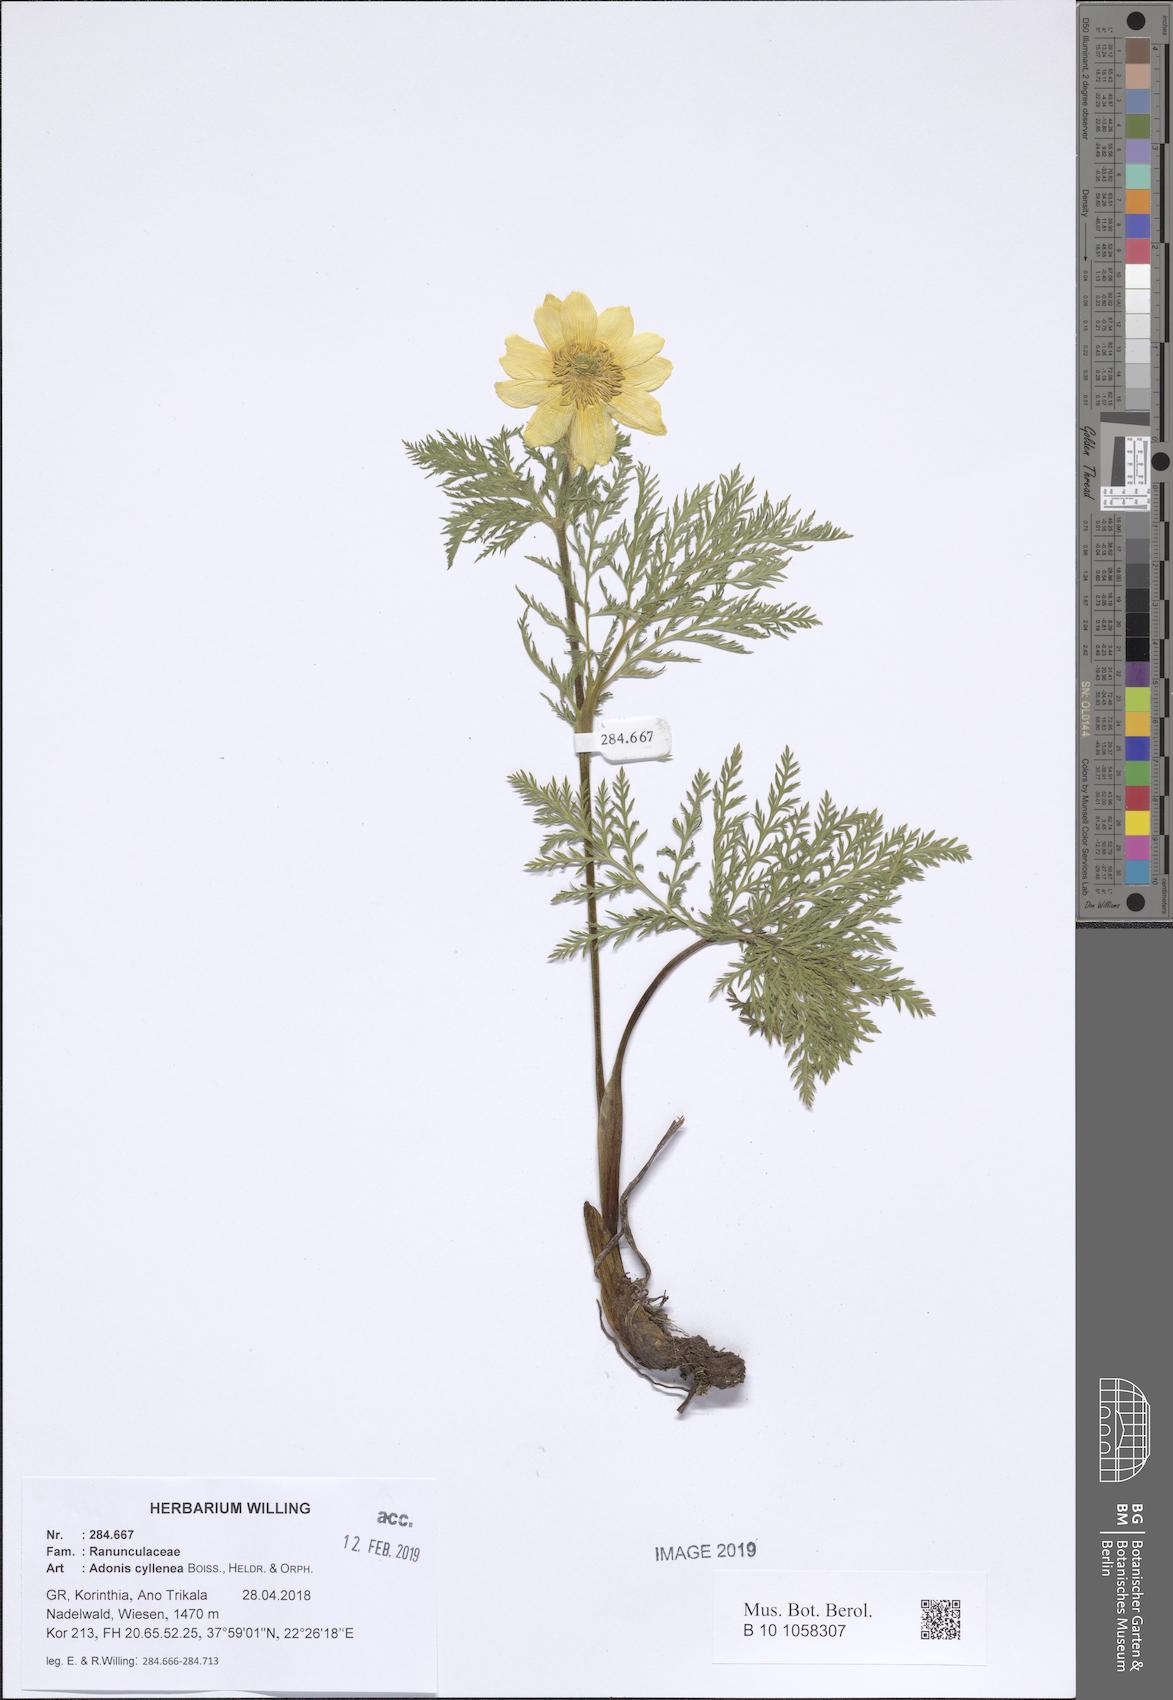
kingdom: Plantae
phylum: Tracheophyta
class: Magnoliopsida
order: Ranunculales
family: Ranunculaceae
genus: Adonis
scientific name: Adonis cyllenea
